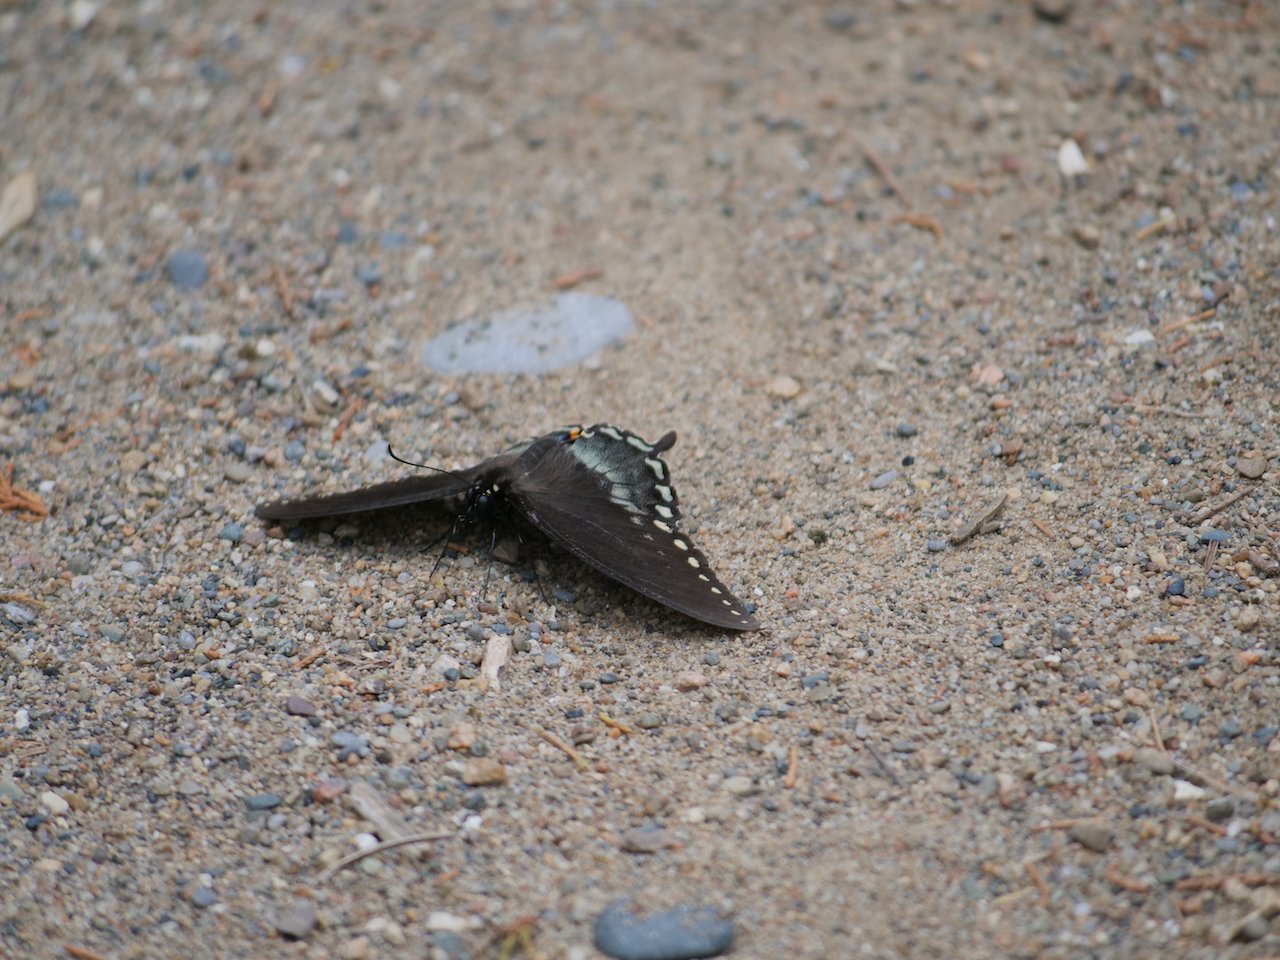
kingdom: Animalia
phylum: Arthropoda
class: Insecta
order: Lepidoptera
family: Papilionidae
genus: Pterourus
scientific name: Pterourus troilus
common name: Spicebush Swallowtail
